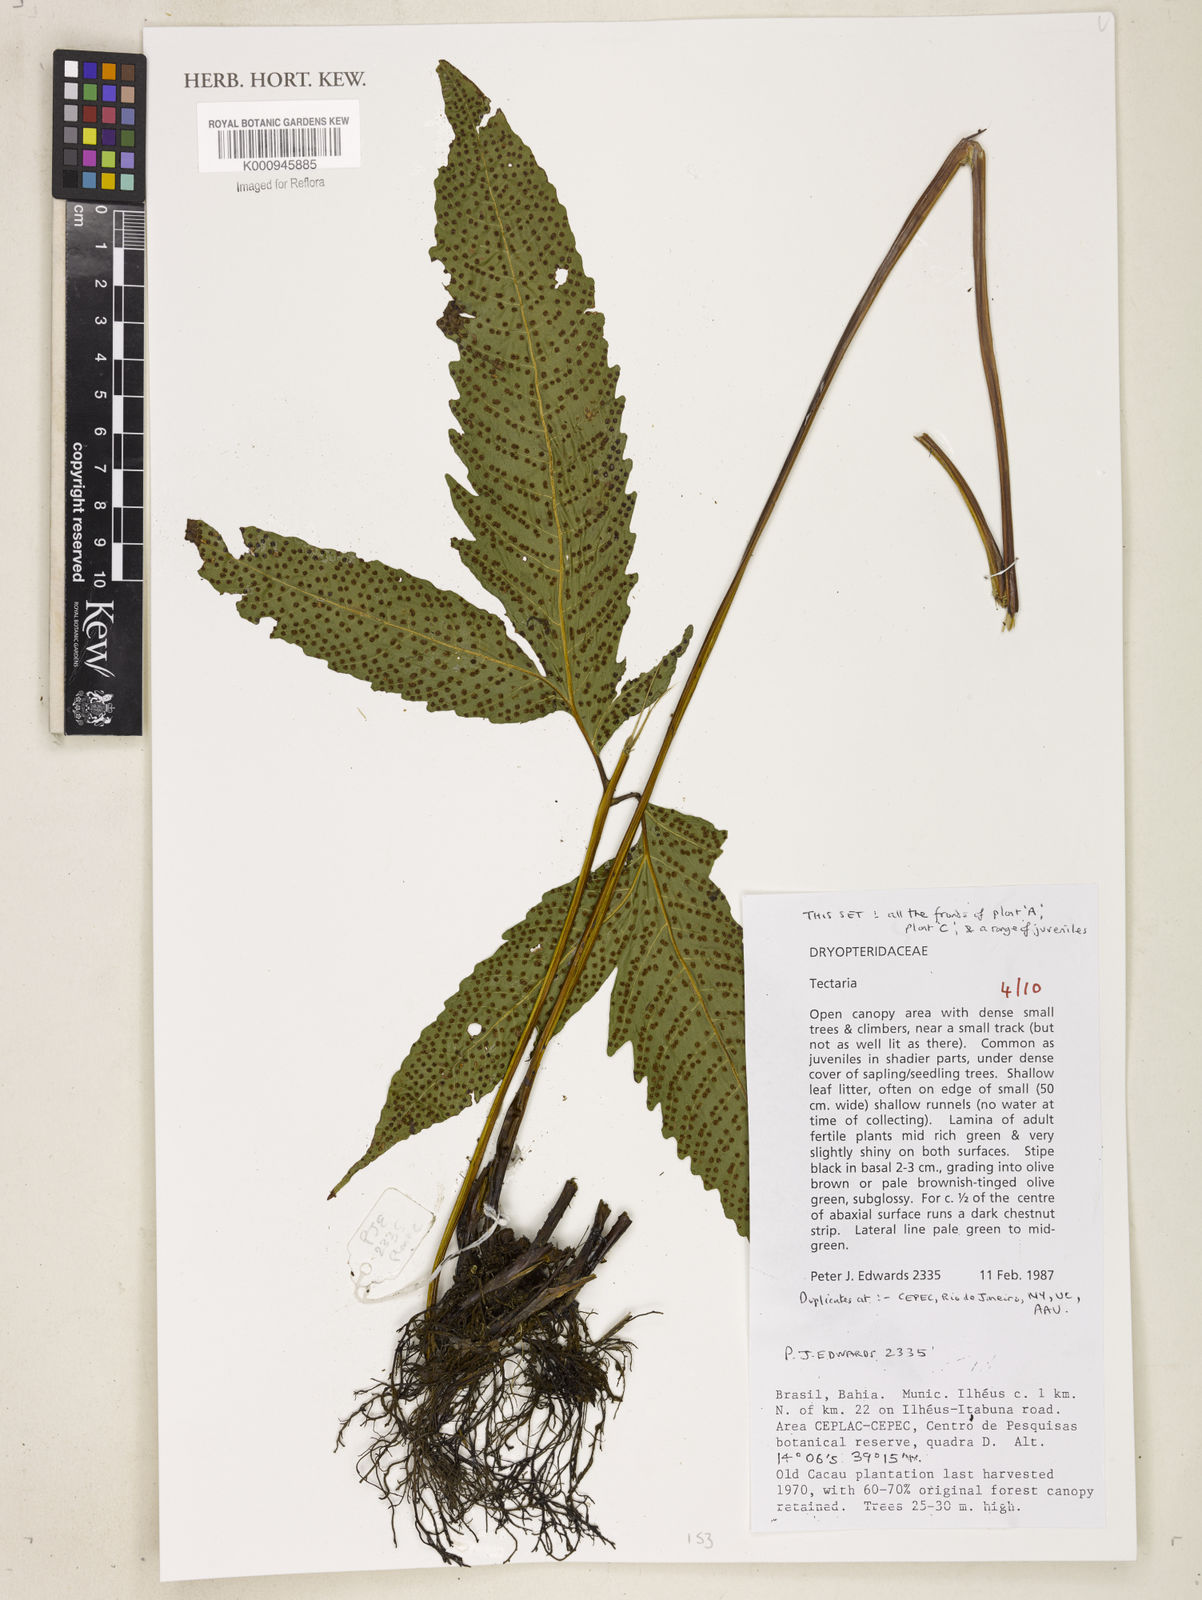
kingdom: Plantae
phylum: Tracheophyta
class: Polypodiopsida
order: Polypodiales
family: Tectariaceae
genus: Tectaria
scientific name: Tectaria
